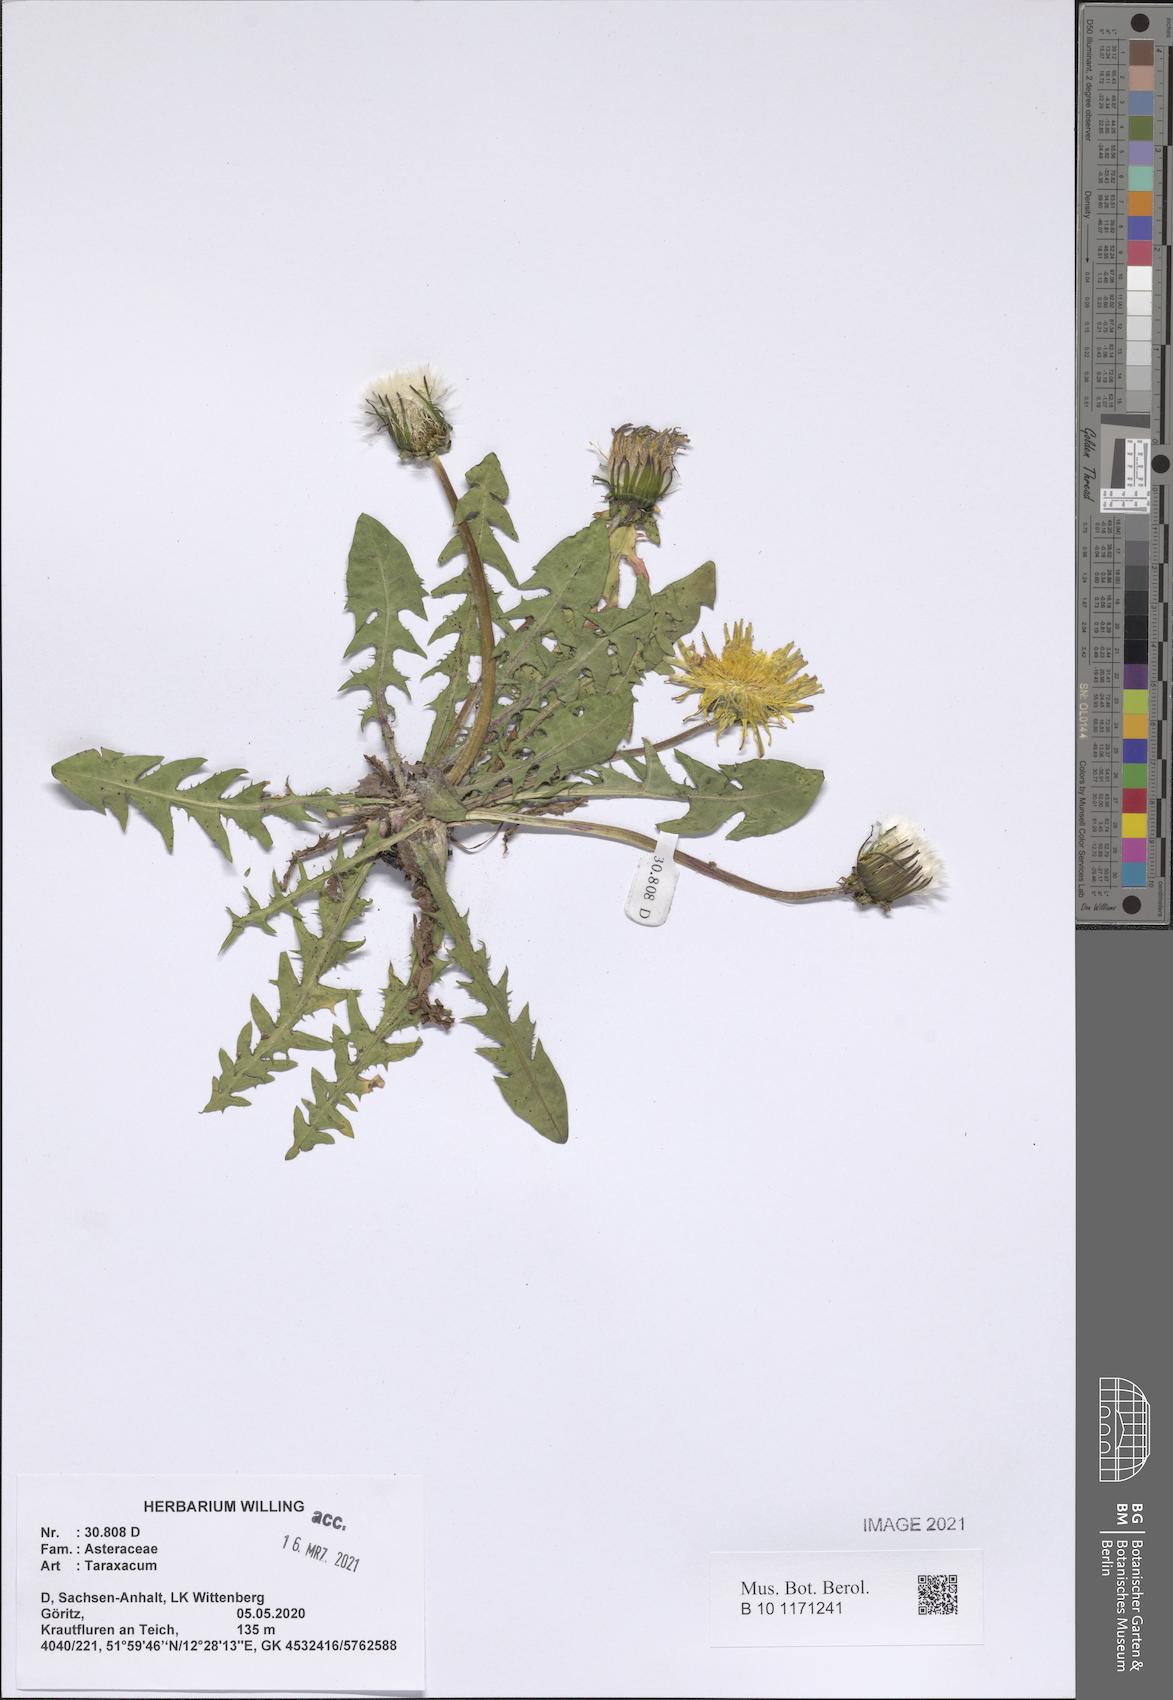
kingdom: Plantae
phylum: Tracheophyta
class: Magnoliopsida
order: Asterales
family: Asteraceae
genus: Taraxacum
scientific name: Taraxacum
